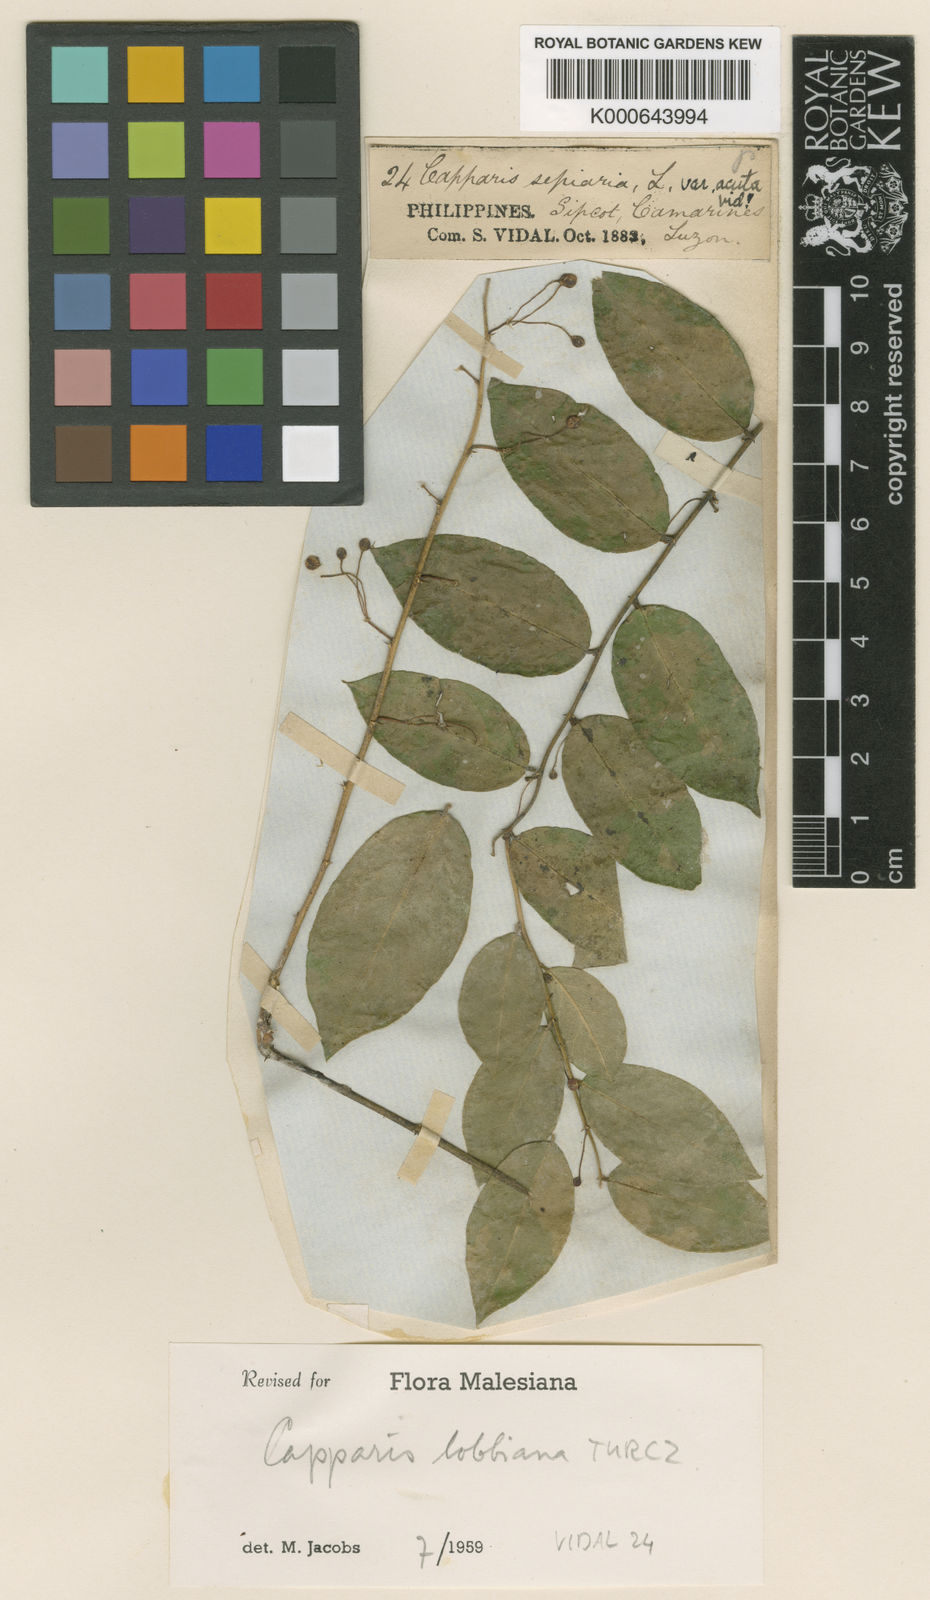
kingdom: Plantae
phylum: Tracheophyta
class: Magnoliopsida
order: Brassicales
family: Capparaceae
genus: Capparis
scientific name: Capparis lobbiana
